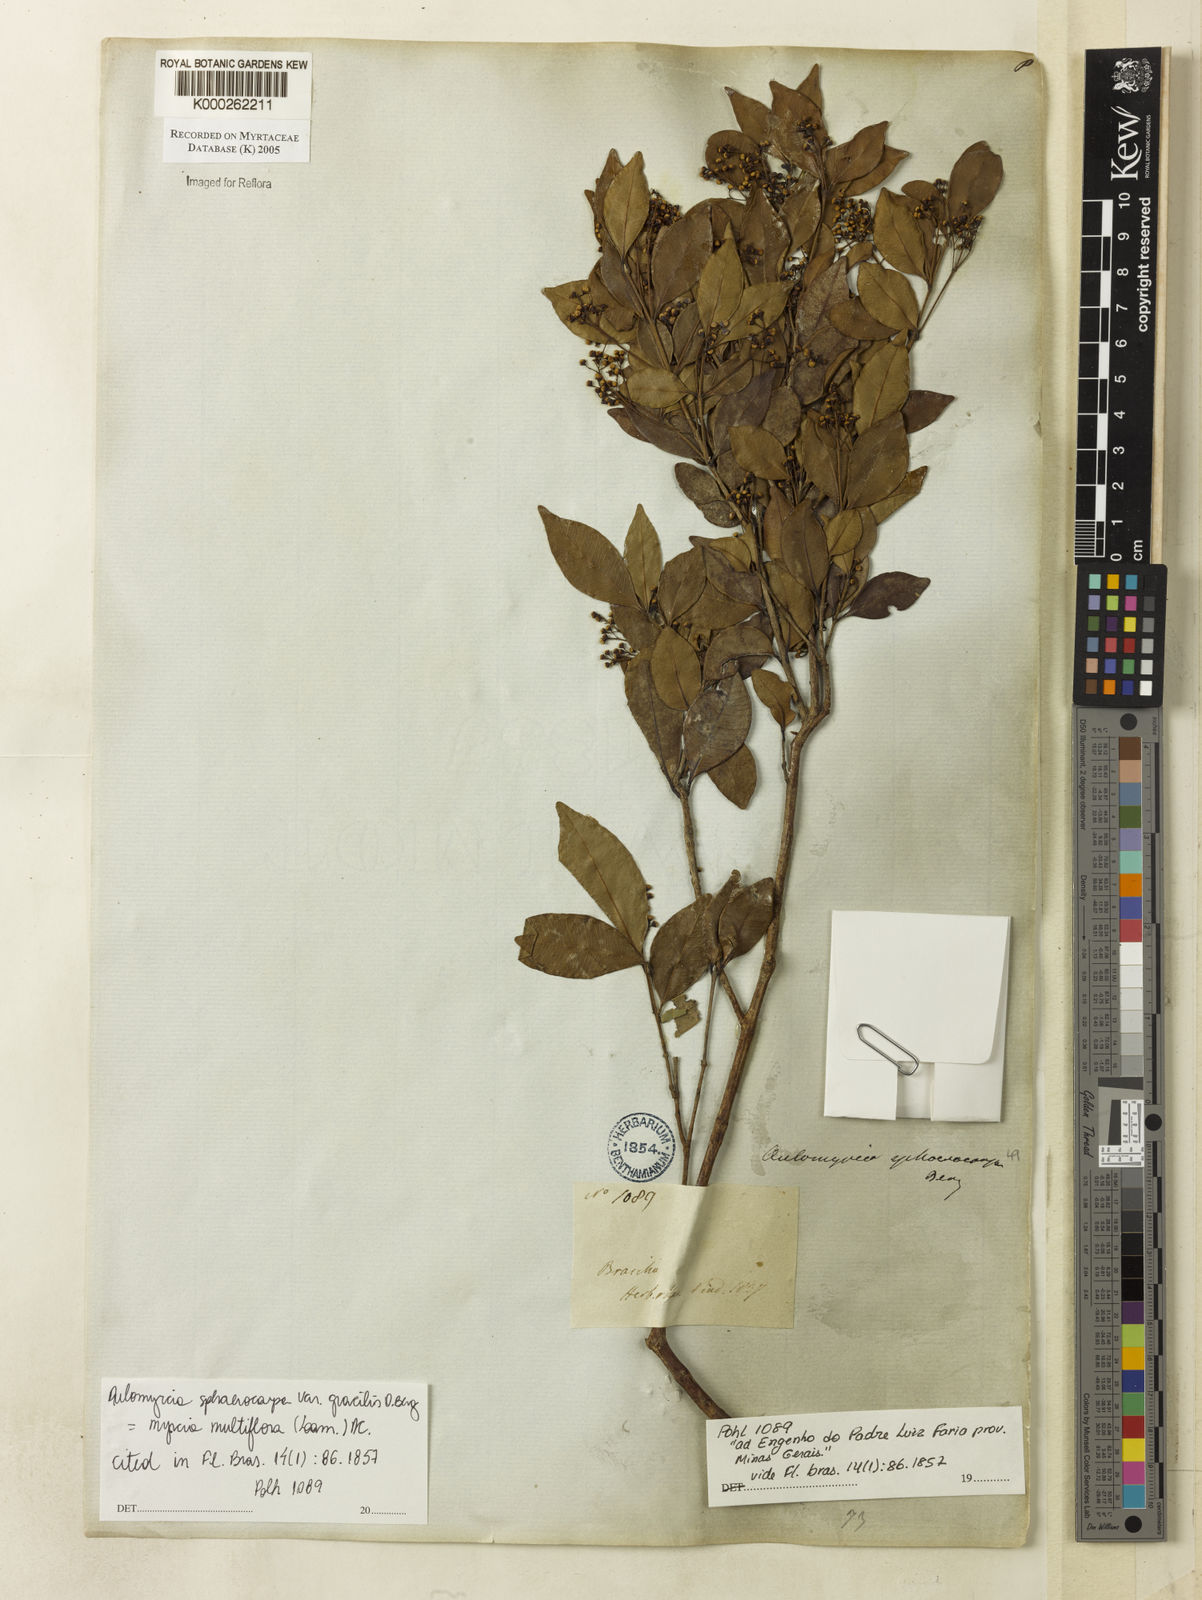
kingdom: Plantae
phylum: Tracheophyta
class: Magnoliopsida
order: Myrtales
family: Myrtaceae
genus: Myrcia
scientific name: Myrcia splendens
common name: Surinam cherry
